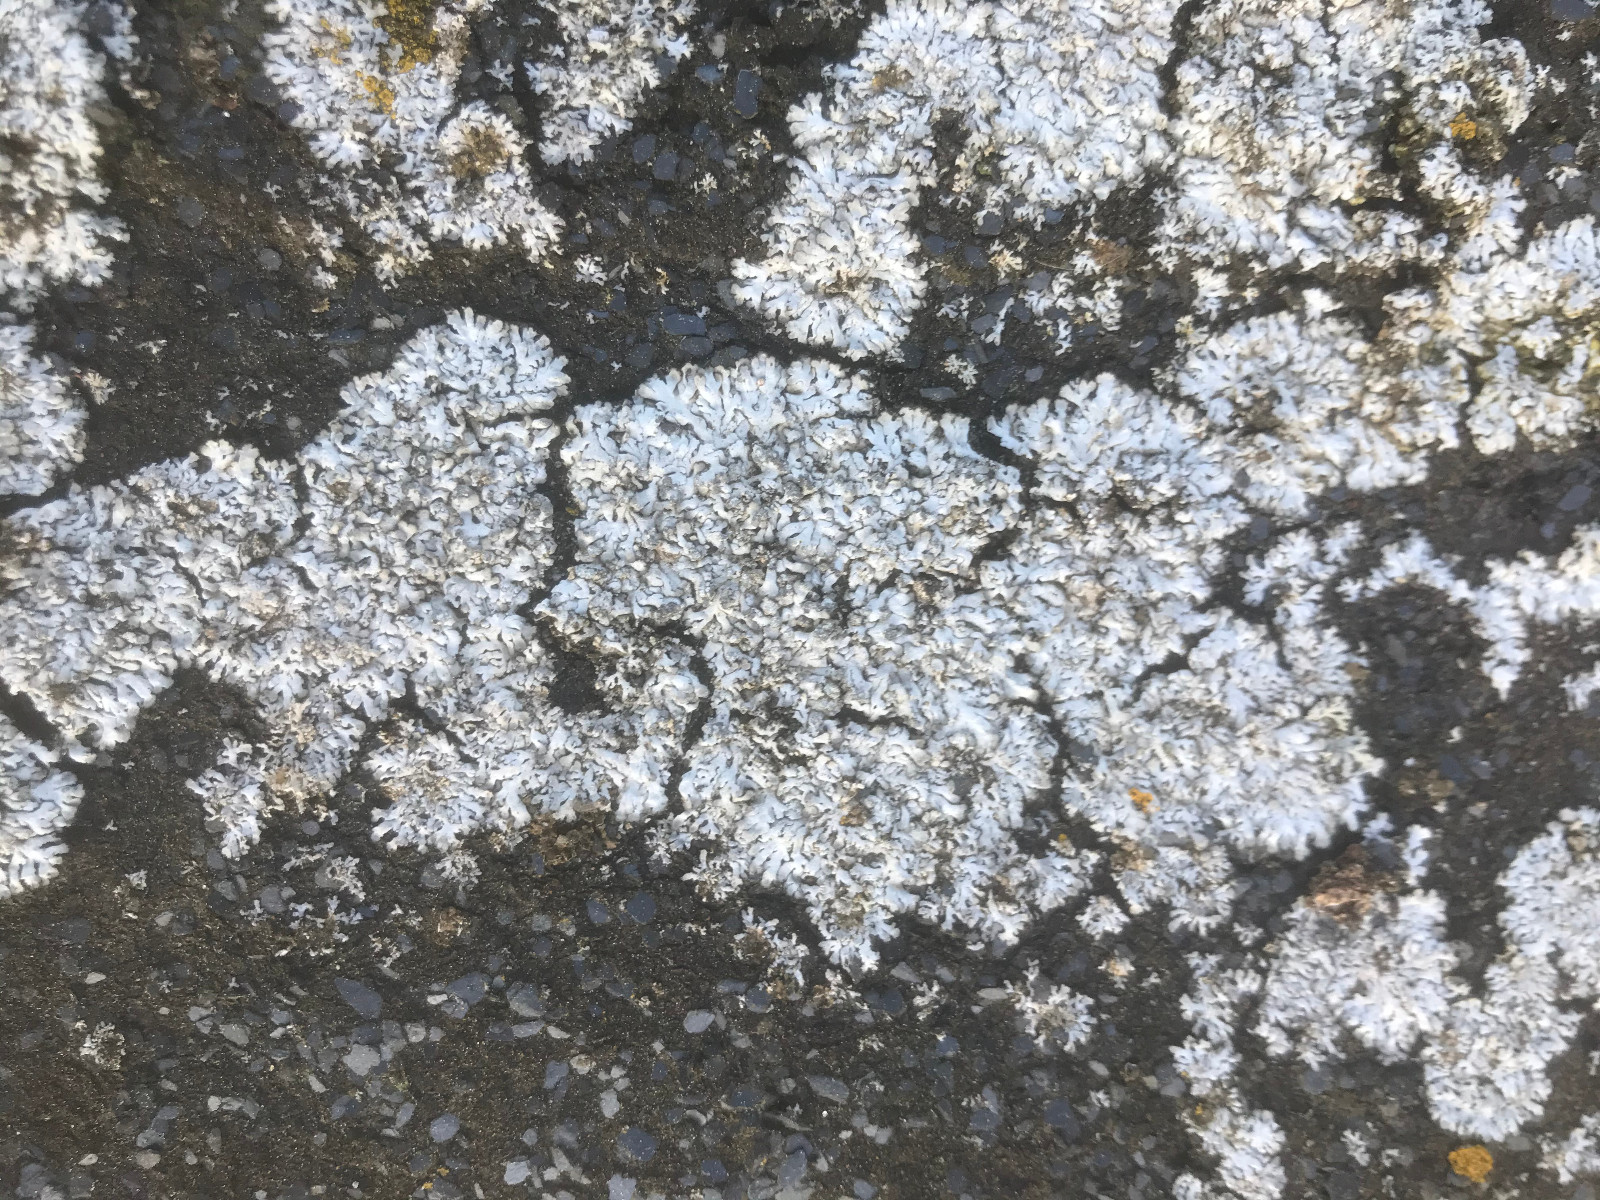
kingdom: Fungi
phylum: Ascomycota
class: Lecanoromycetes
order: Caliciales
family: Physciaceae
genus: Physcia
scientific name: Physcia dubia
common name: fuglestens-rosetlav
